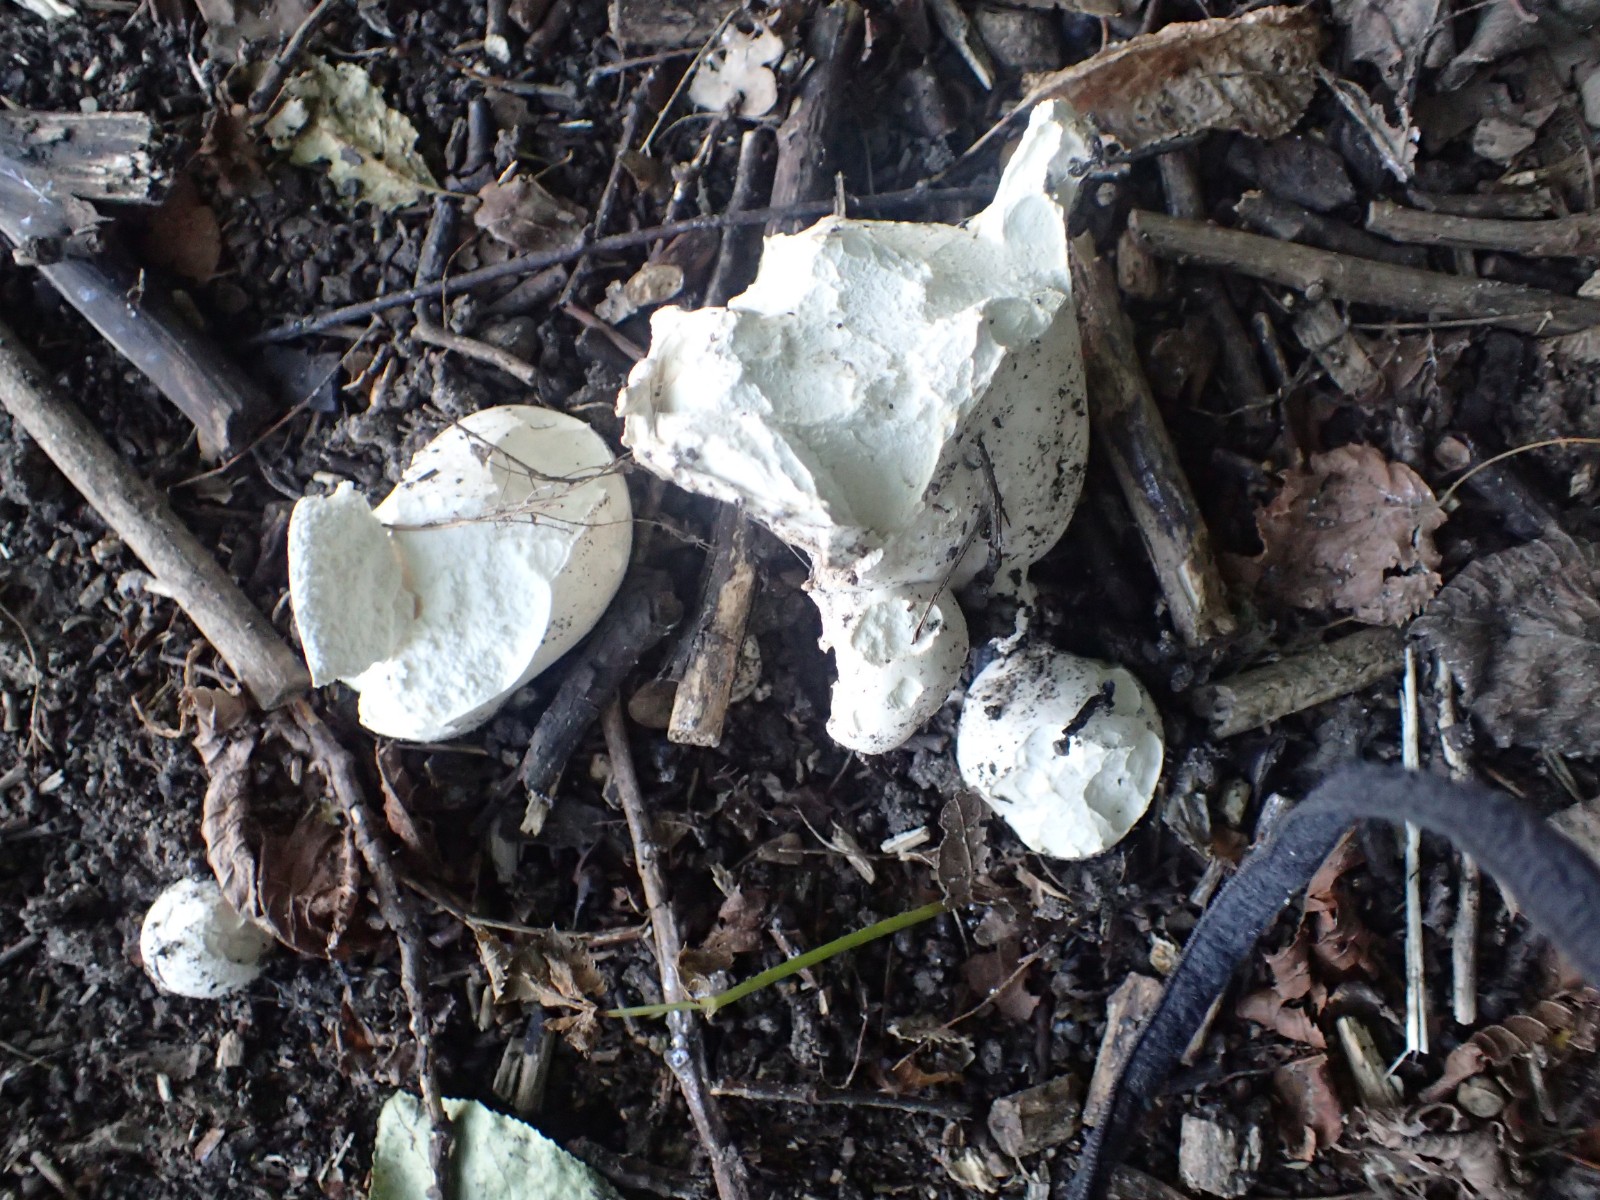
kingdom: Fungi
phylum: Basidiomycota
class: Agaricomycetes
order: Agaricales
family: Lycoperdaceae
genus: Calvatia
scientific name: Calvatia gigantea
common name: kæmpestøvbold
